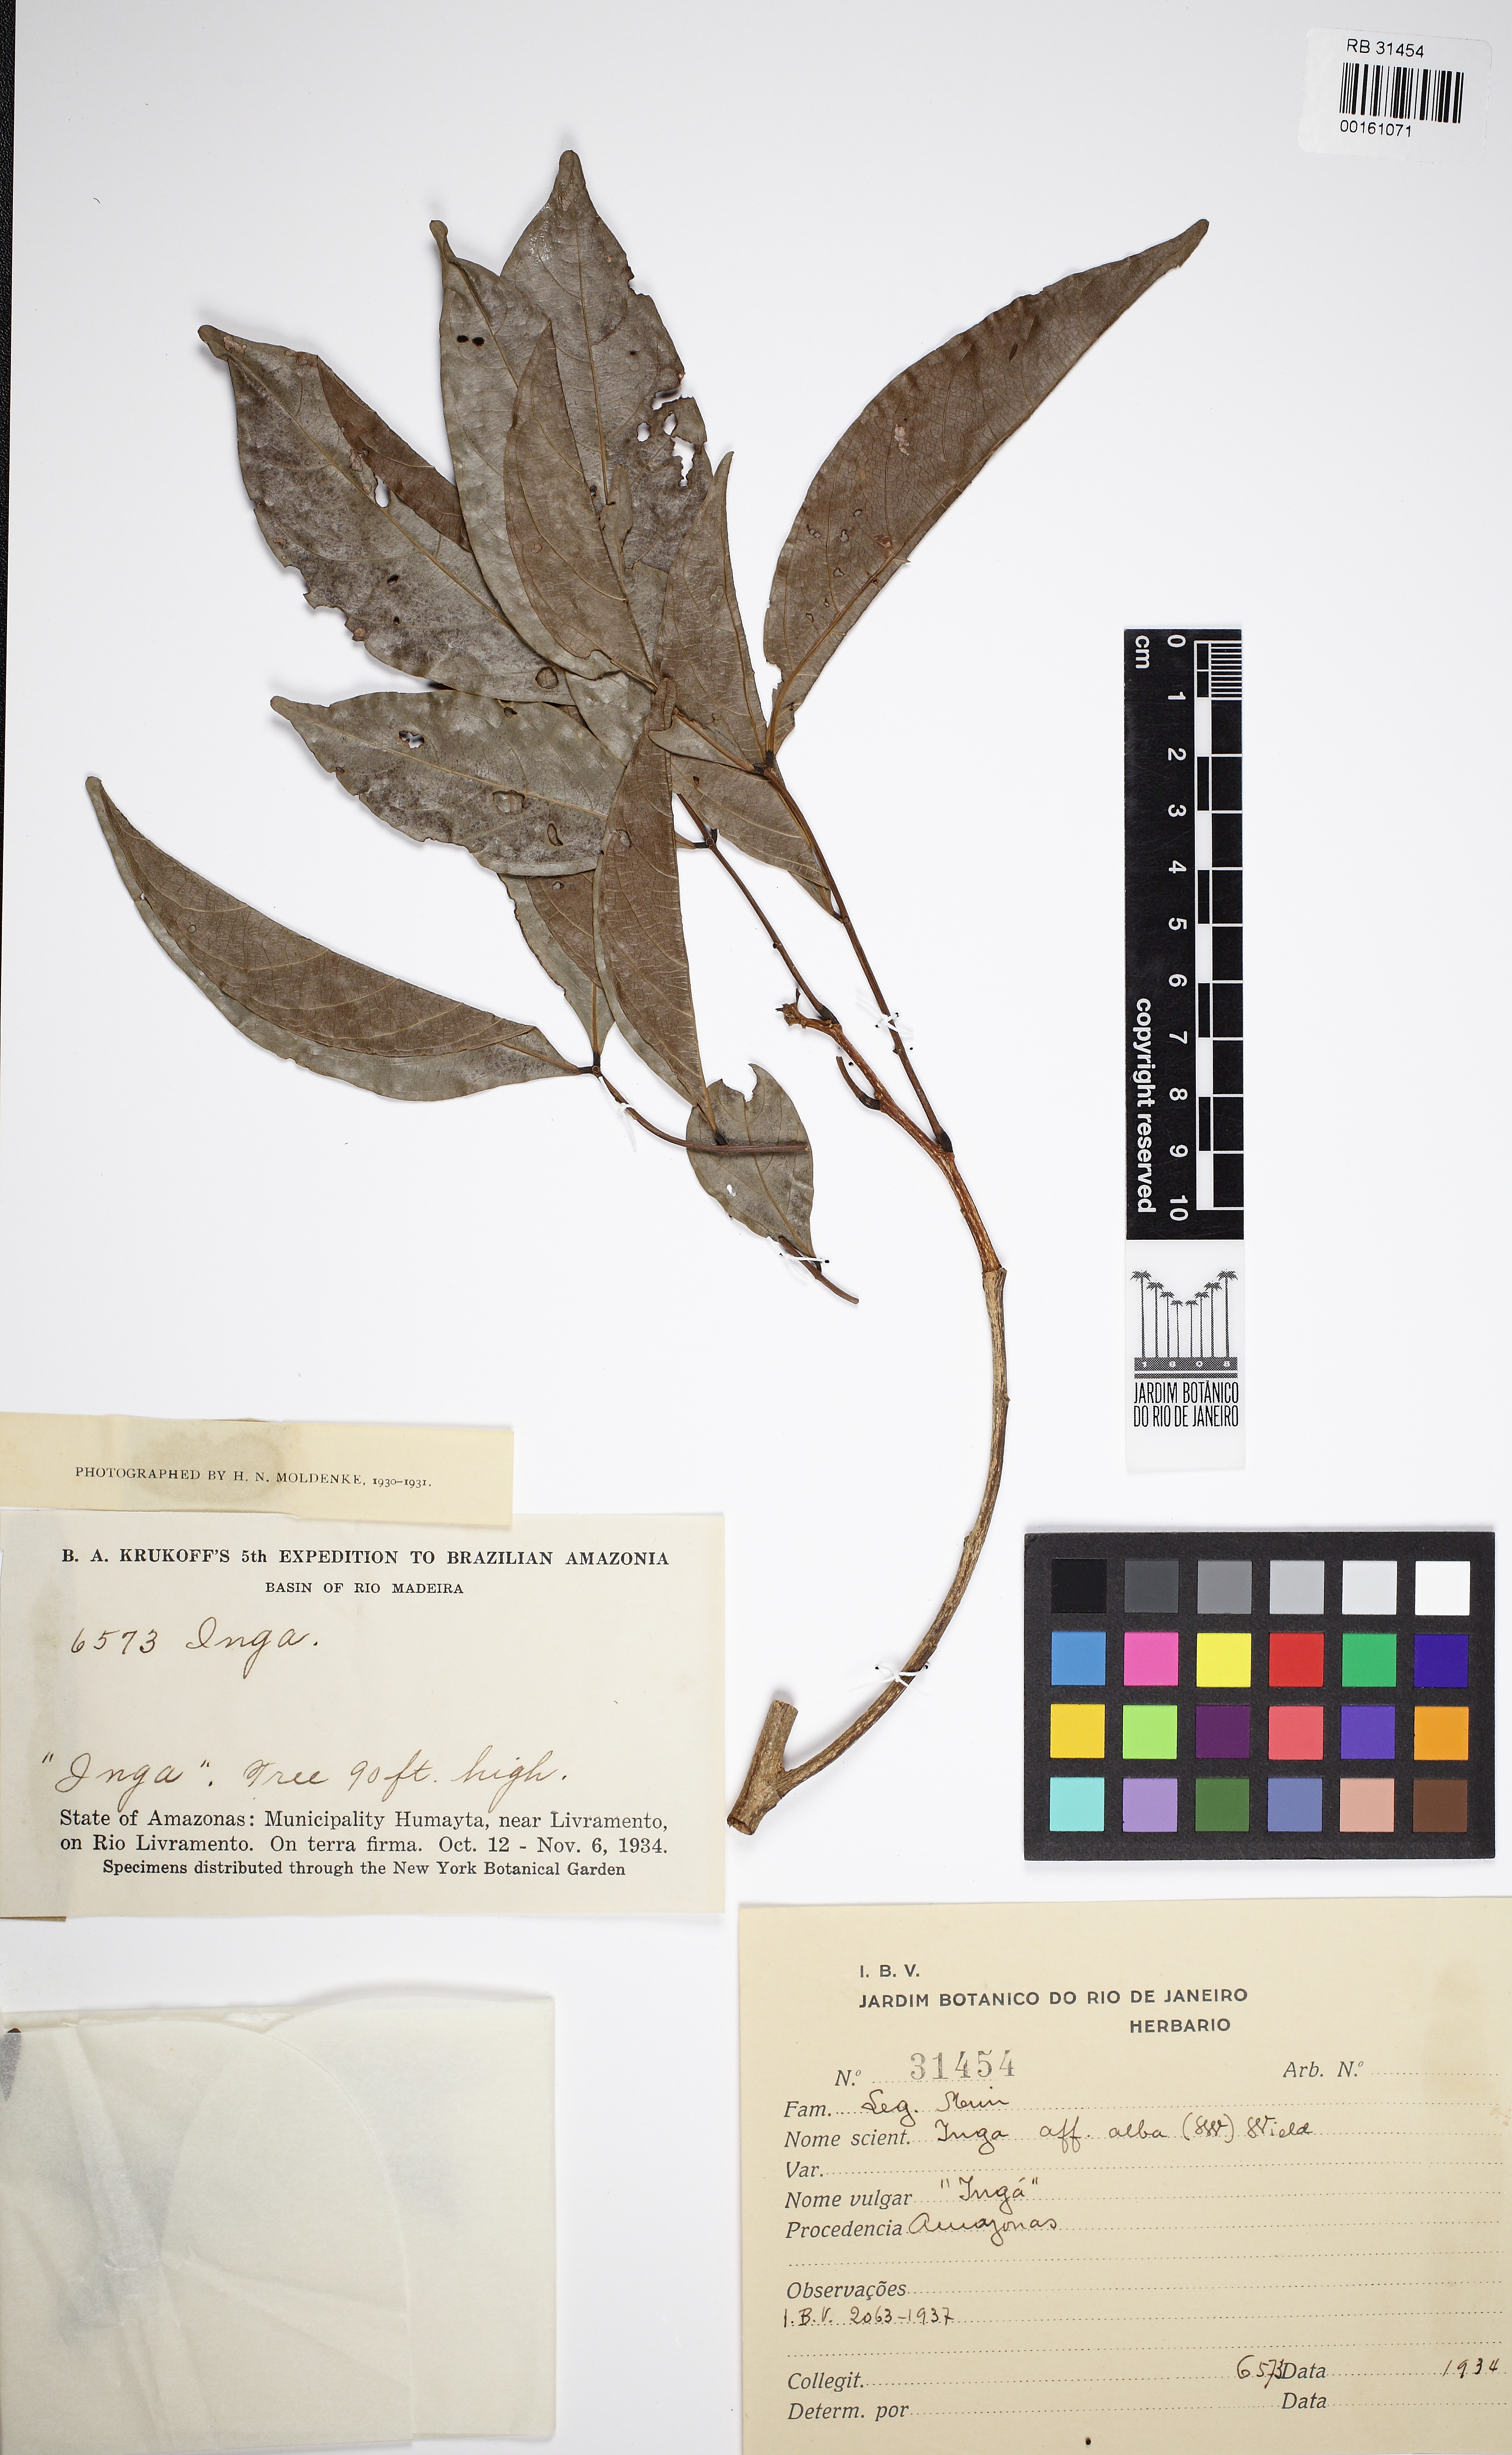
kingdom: Plantae
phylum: Tracheophyta
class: Magnoliopsida
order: Fabales
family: Fabaceae
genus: Inga
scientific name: Inga alba
